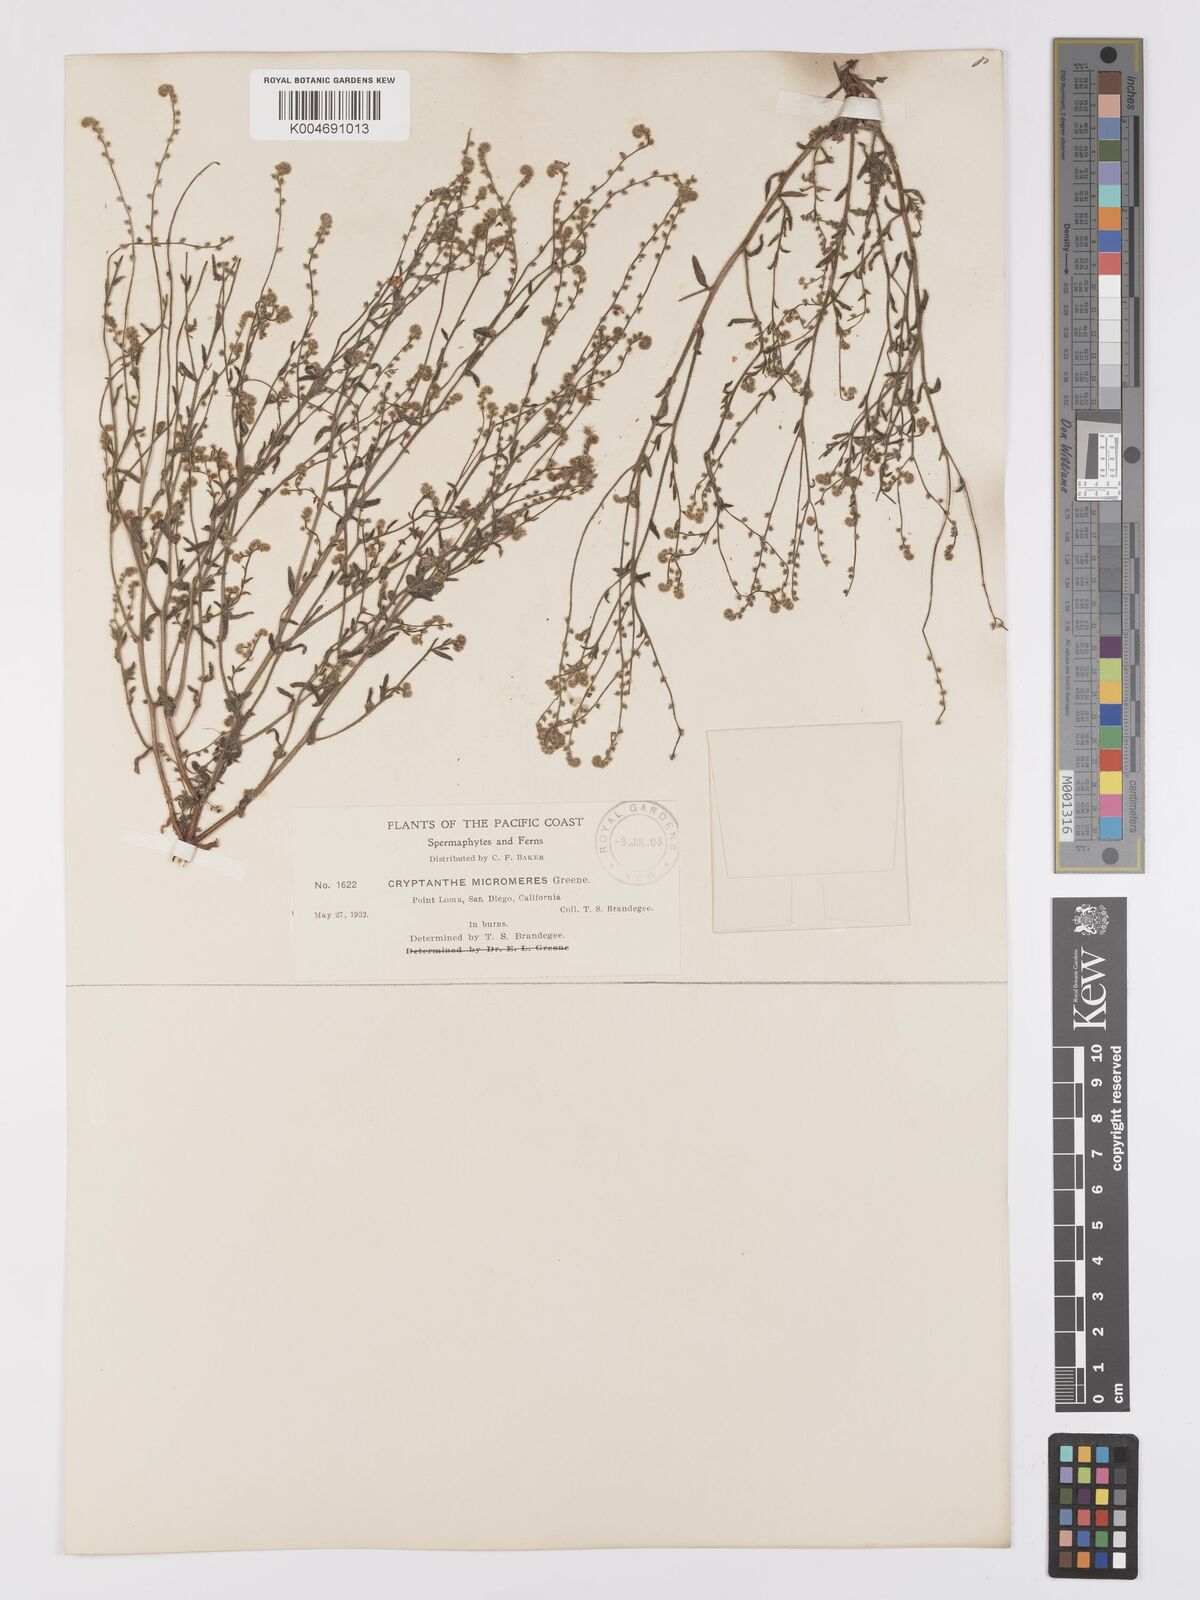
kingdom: Plantae
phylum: Tracheophyta
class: Magnoliopsida
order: Boraginales
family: Boraginaceae
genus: Johnstonella
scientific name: Johnstonella micromeres
